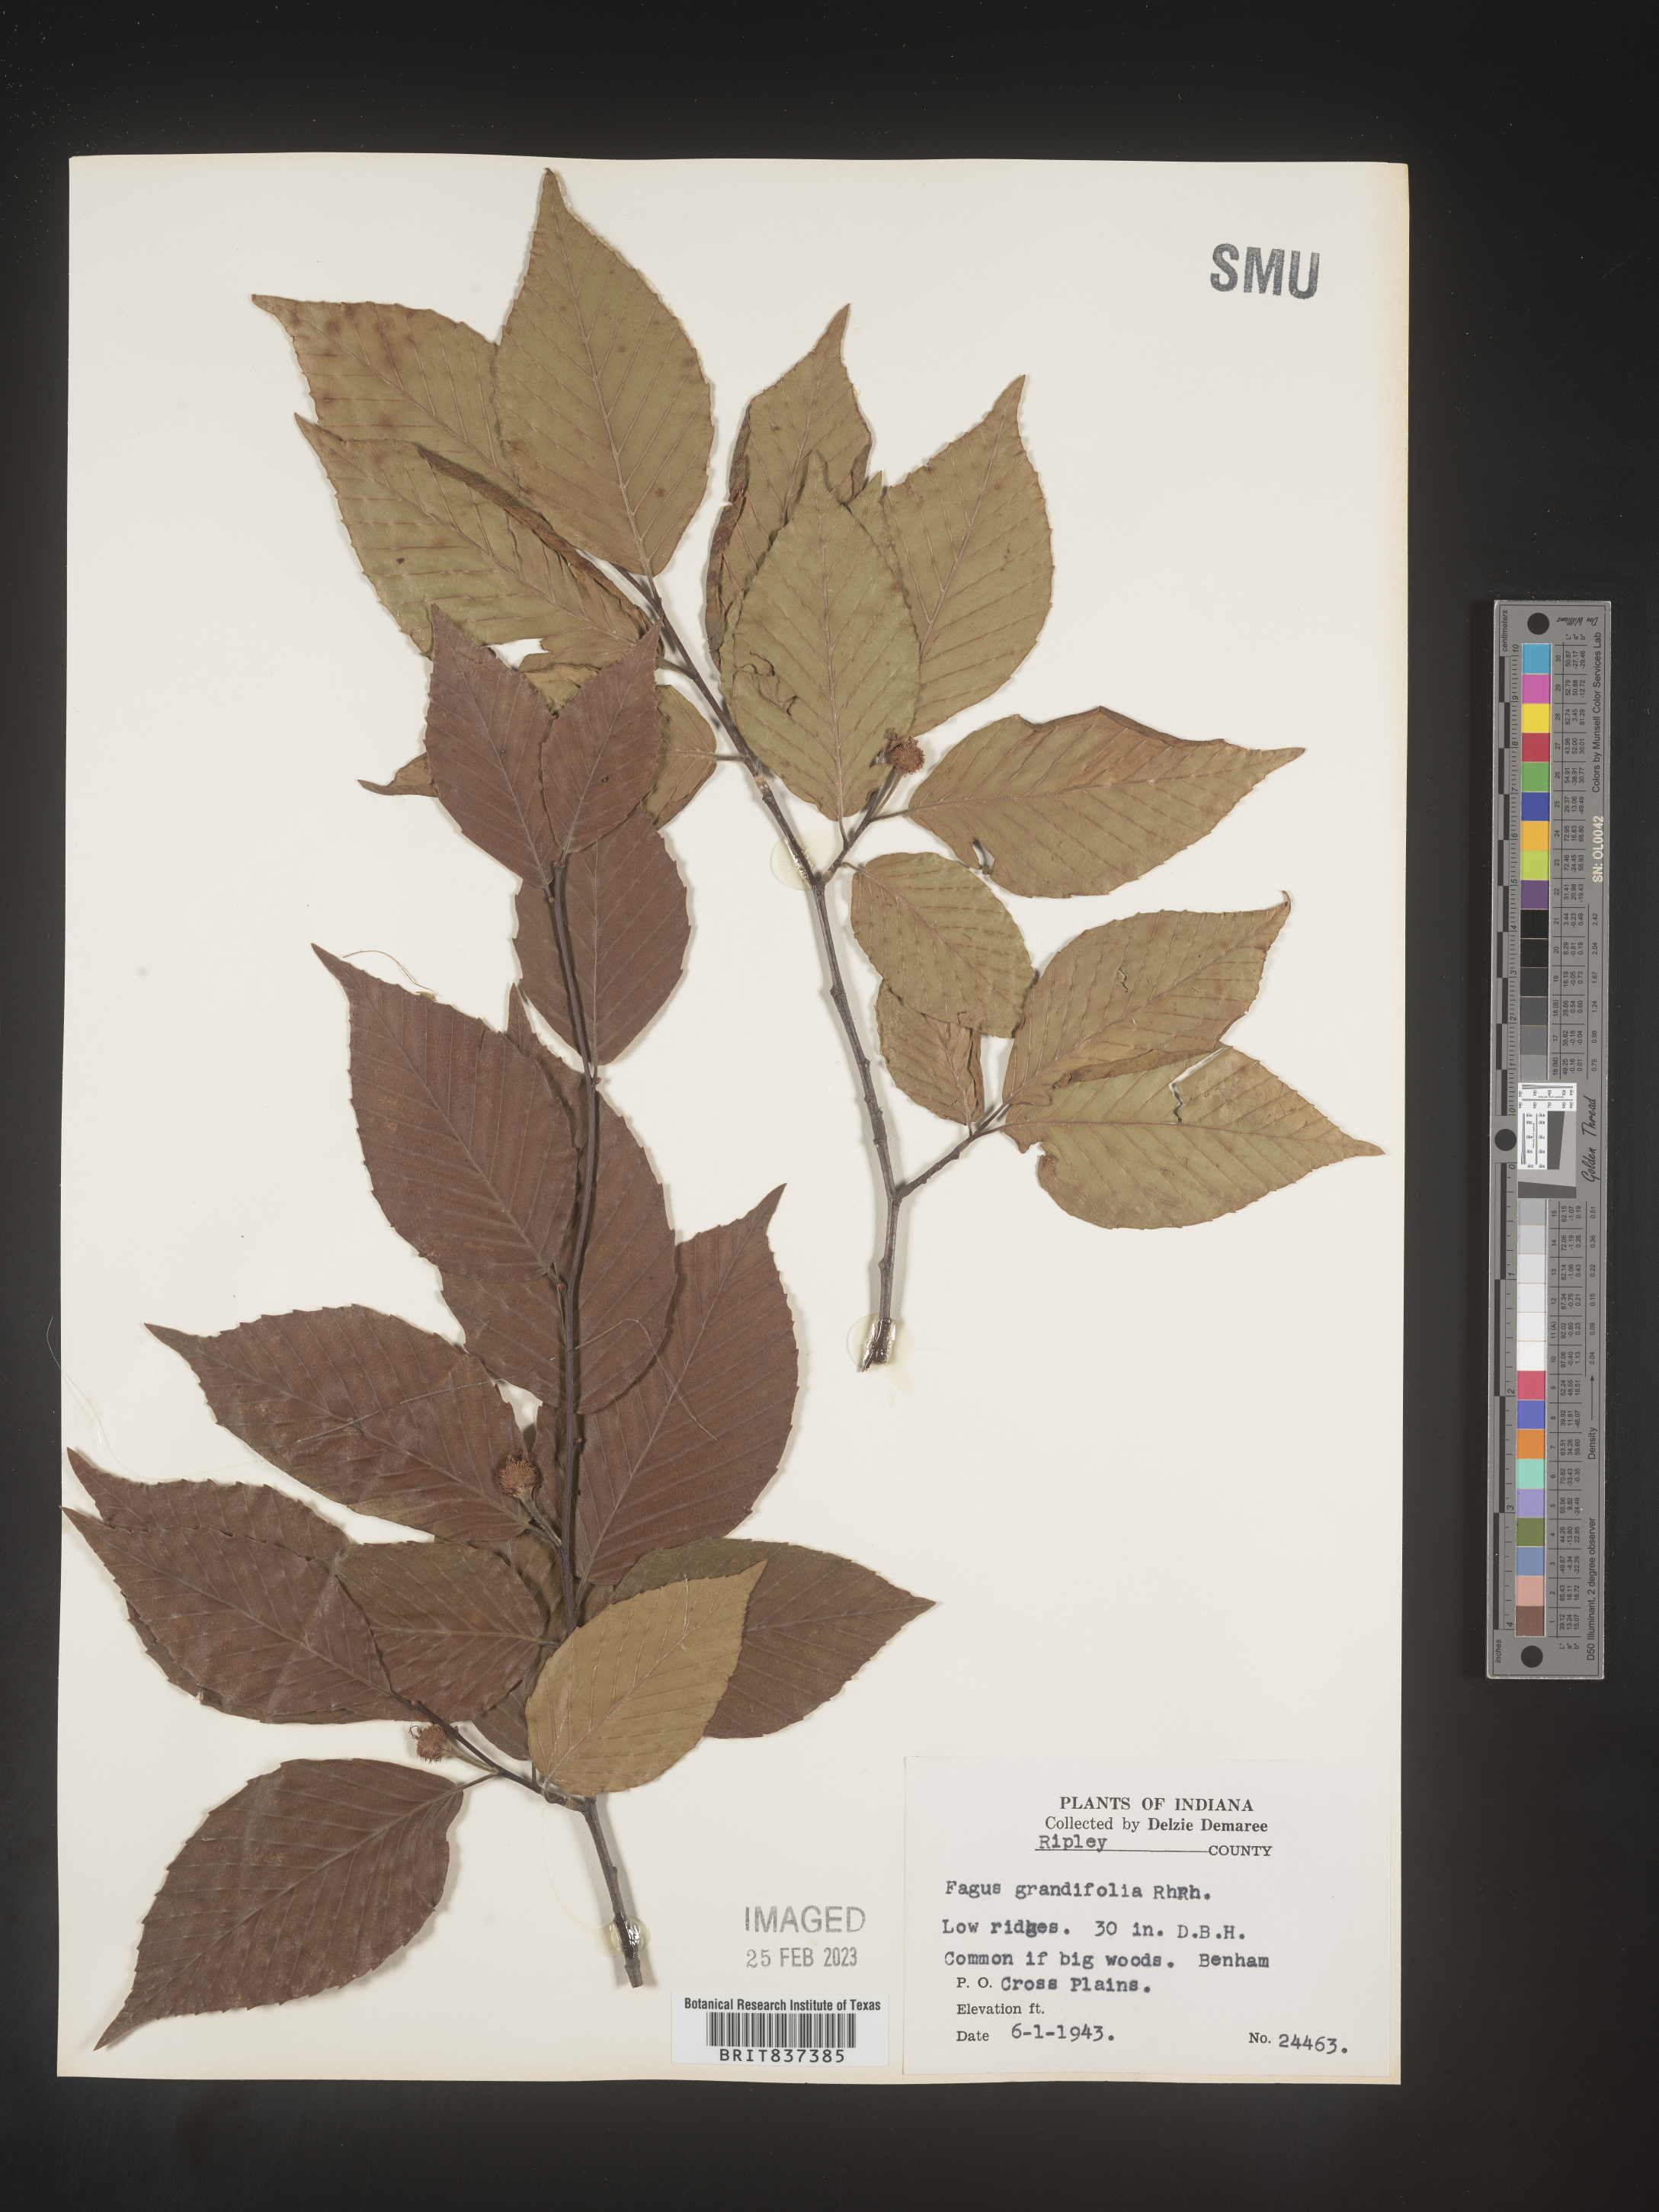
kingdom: Plantae
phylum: Tracheophyta
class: Magnoliopsida
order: Fagales
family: Fagaceae
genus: Fagus
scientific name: Fagus grandifolia
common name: American beech
